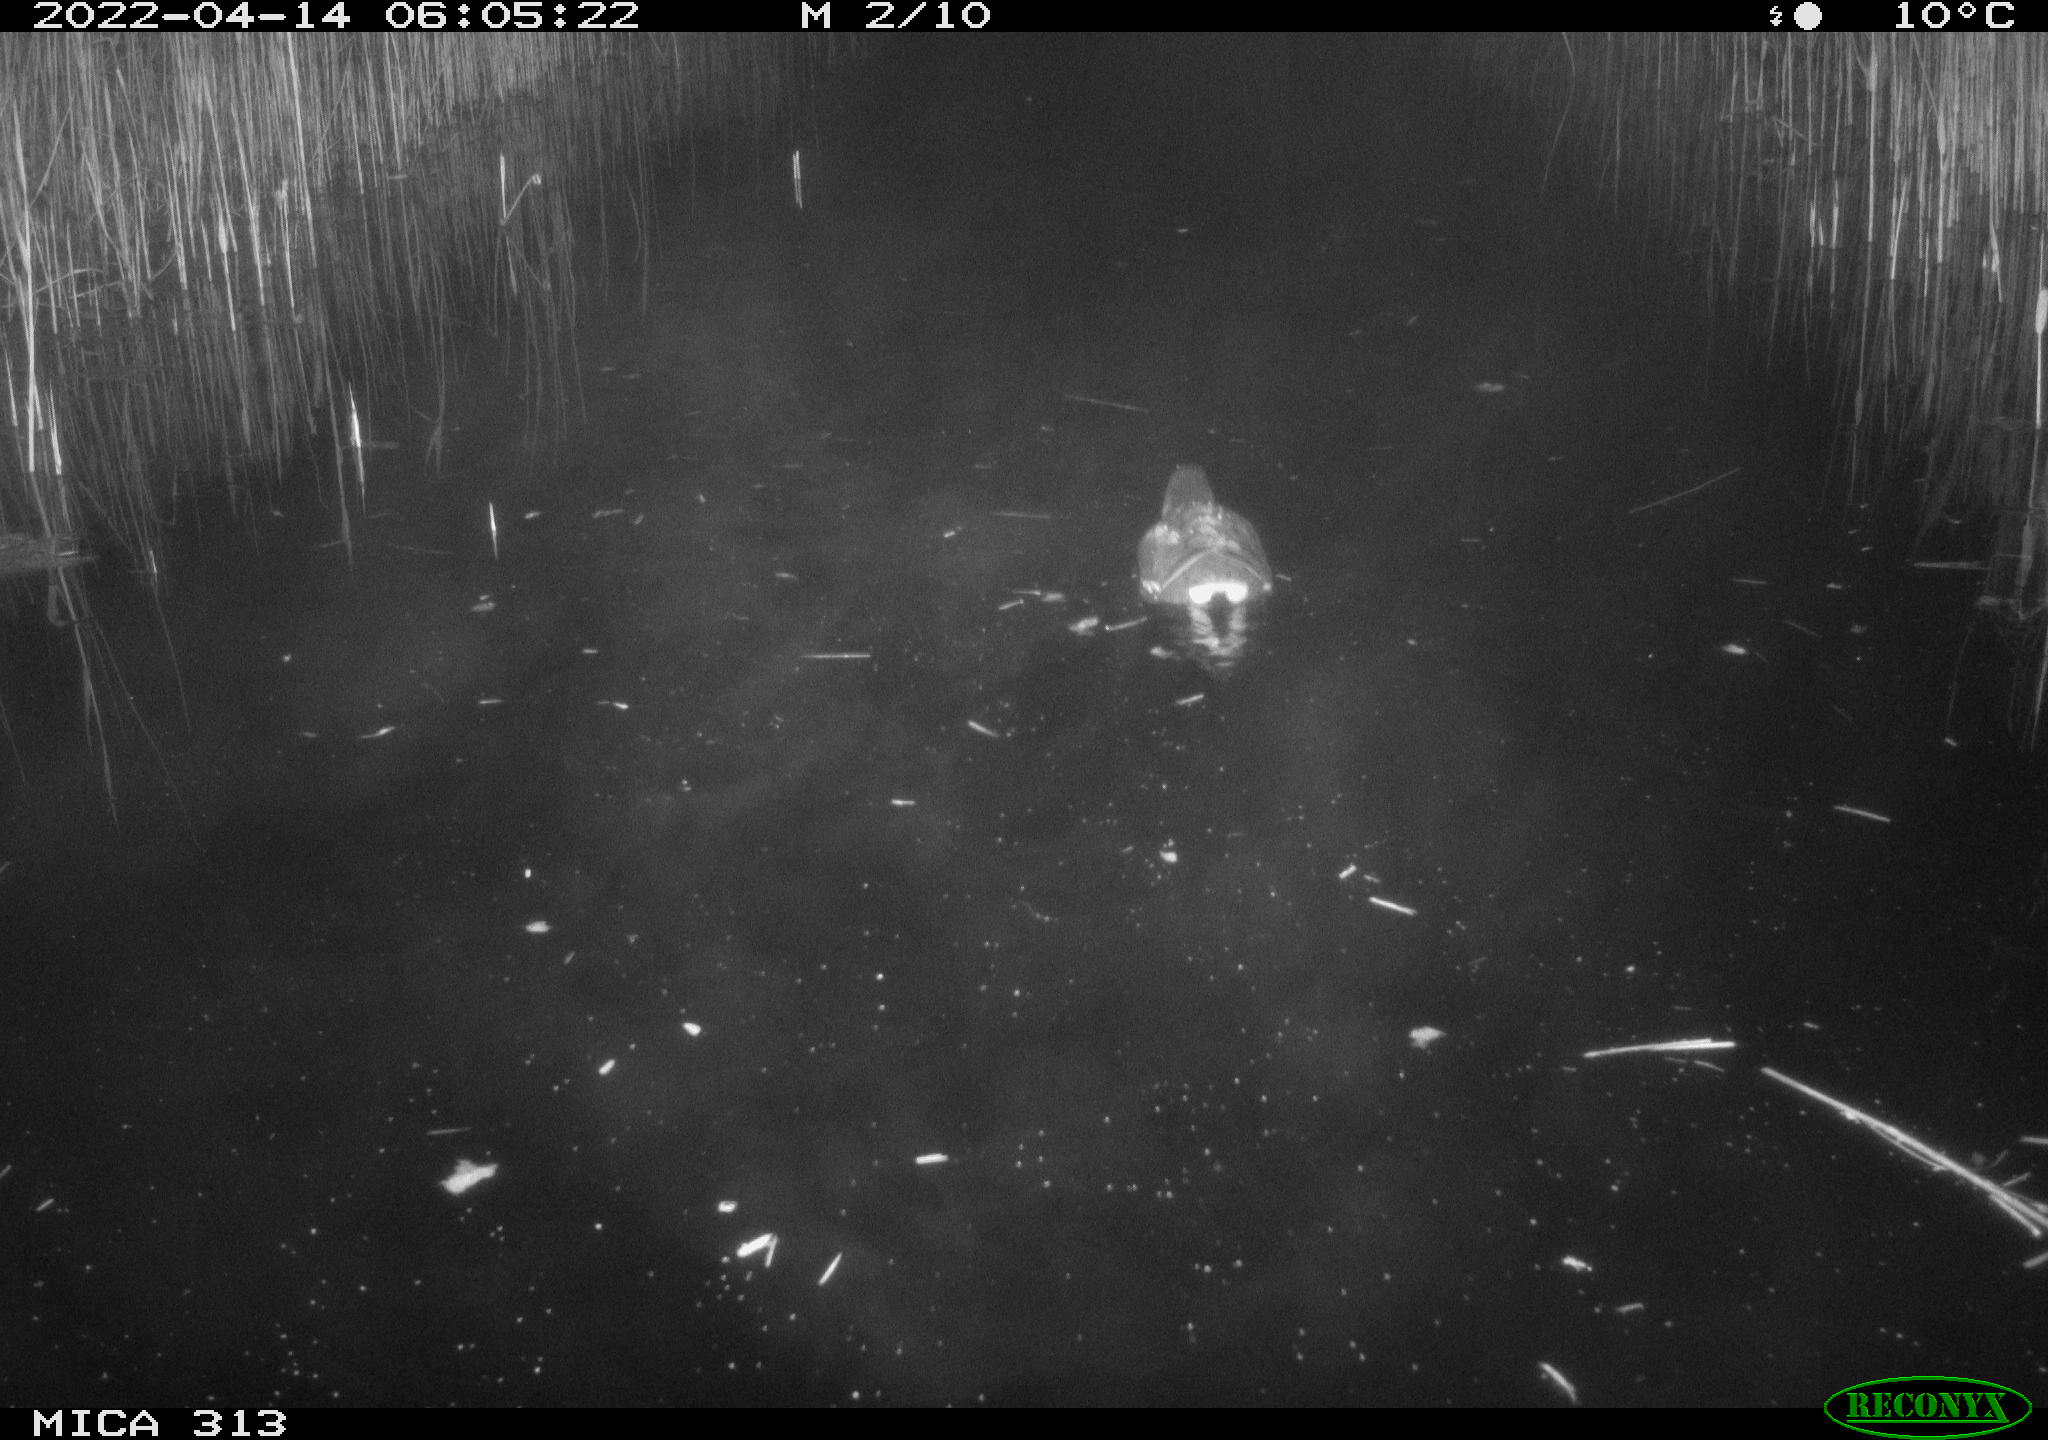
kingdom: Animalia
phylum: Chordata
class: Aves
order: Gruiformes
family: Rallidae
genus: Gallinula
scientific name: Gallinula chloropus
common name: Common moorhen
